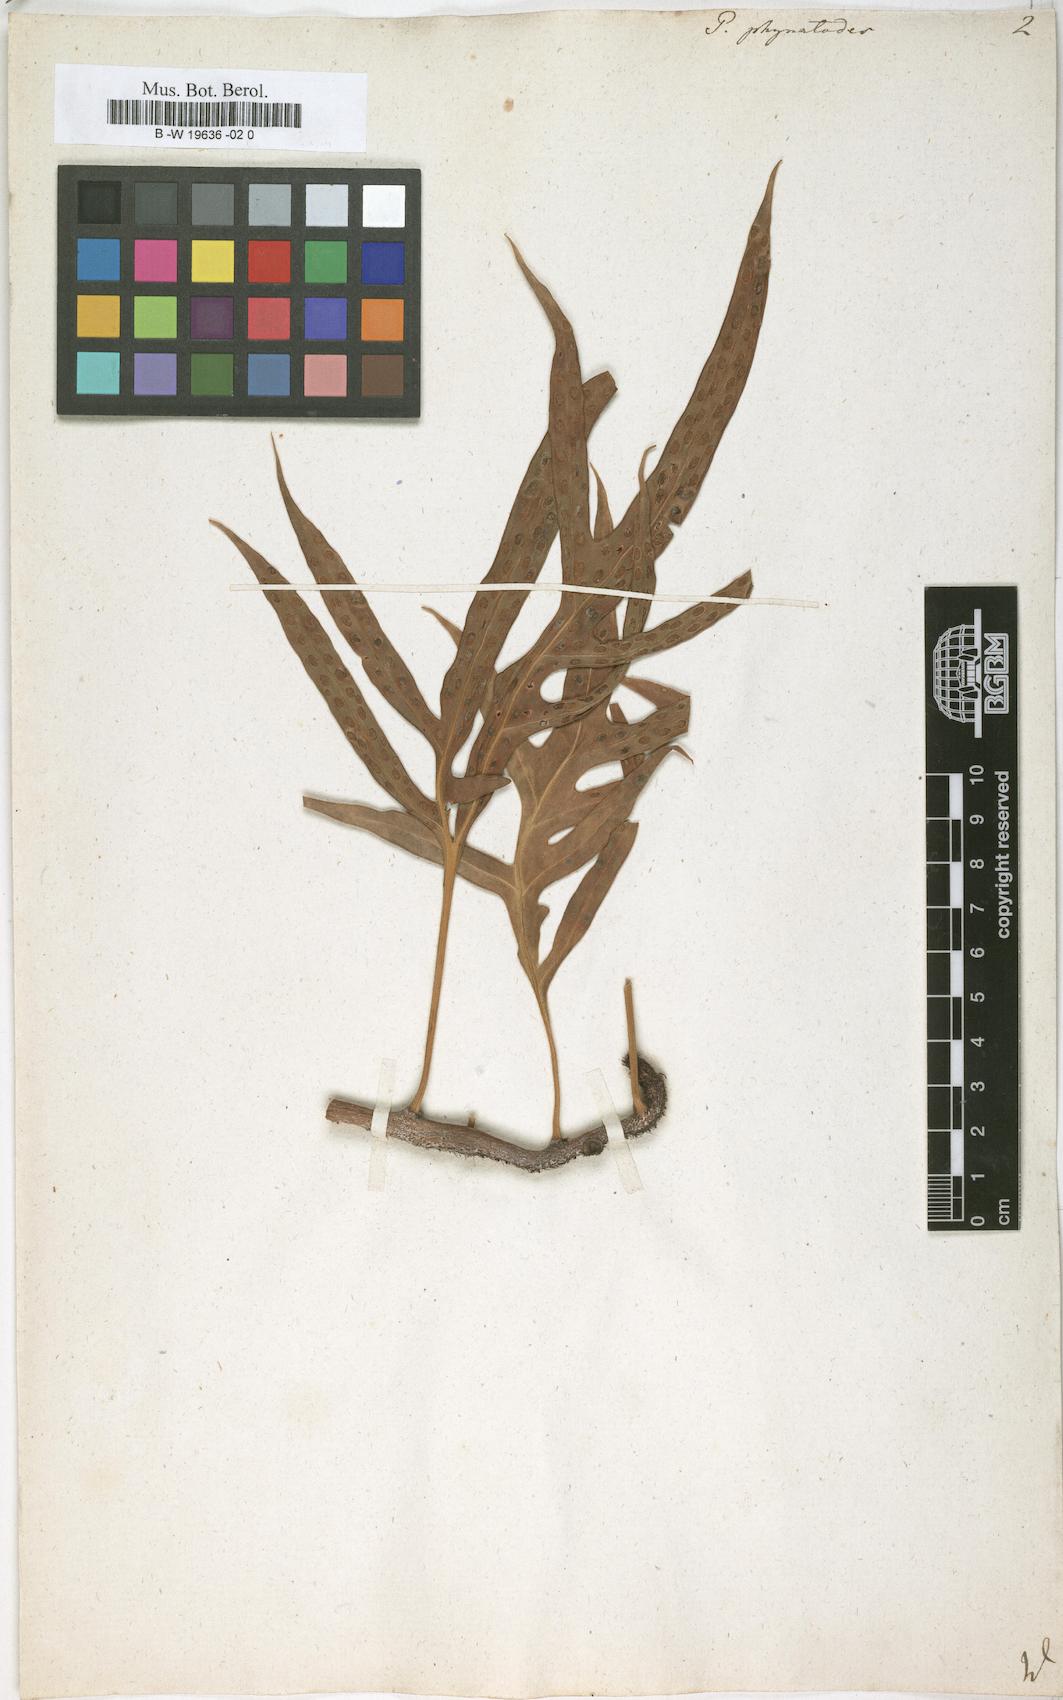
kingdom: Plantae
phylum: Tracheophyta
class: Polypodiopsida
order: Polypodiales
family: Polypodiaceae
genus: Microsorum
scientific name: Microsorum scolopendria
